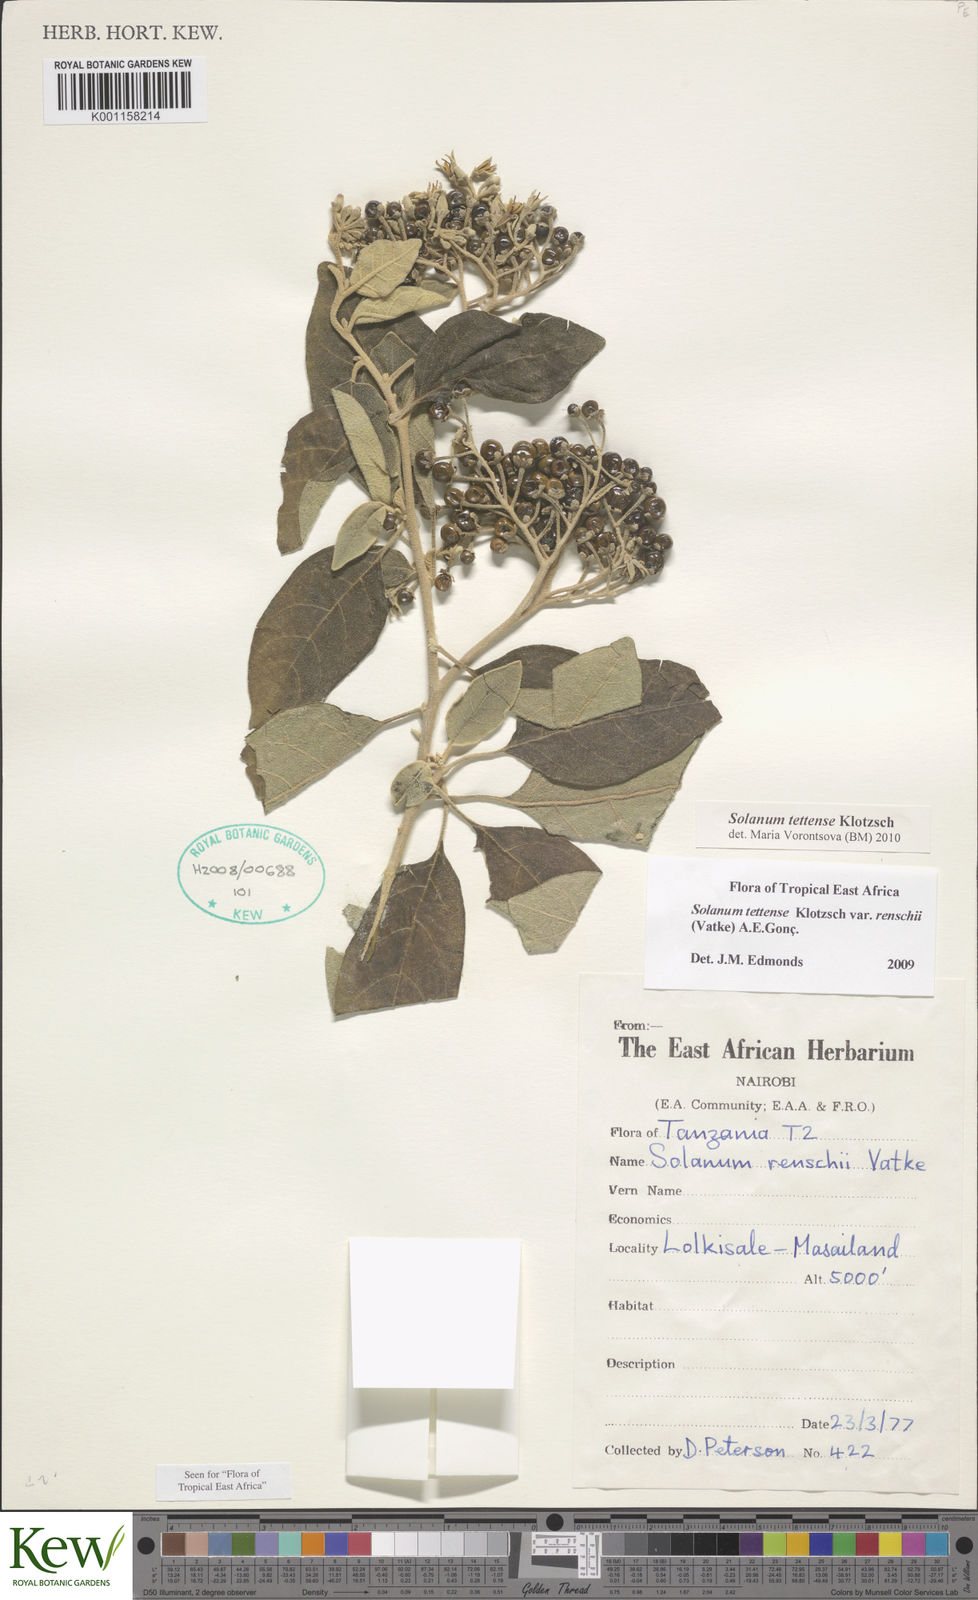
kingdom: Plantae
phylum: Tracheophyta
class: Magnoliopsida
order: Solanales
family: Solanaceae
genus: Solanum
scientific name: Solanum tettense
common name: Mozambique bitter apple
